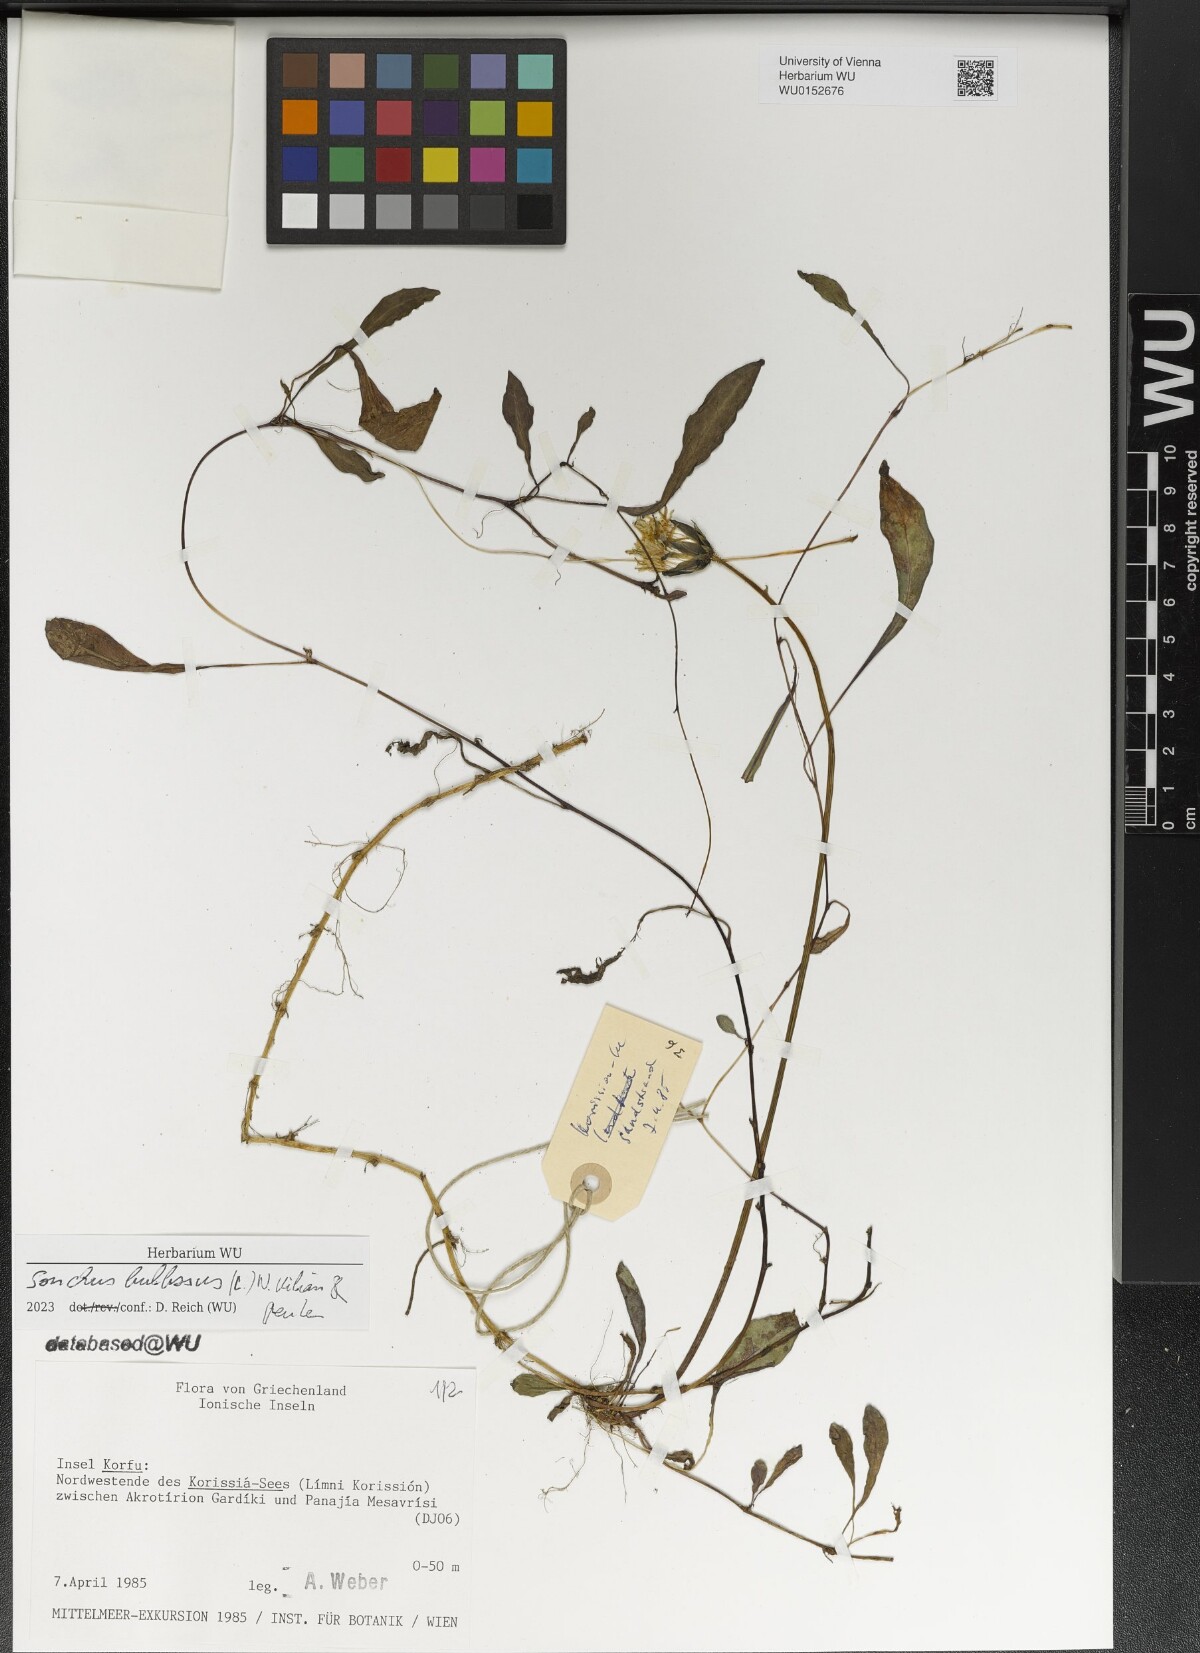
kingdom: Plantae
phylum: Tracheophyta
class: Magnoliopsida
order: Asterales
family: Asteraceae
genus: Aetheorhiza
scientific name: Aetheorhiza bulbosa
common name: Tuberous hawk's-beard
